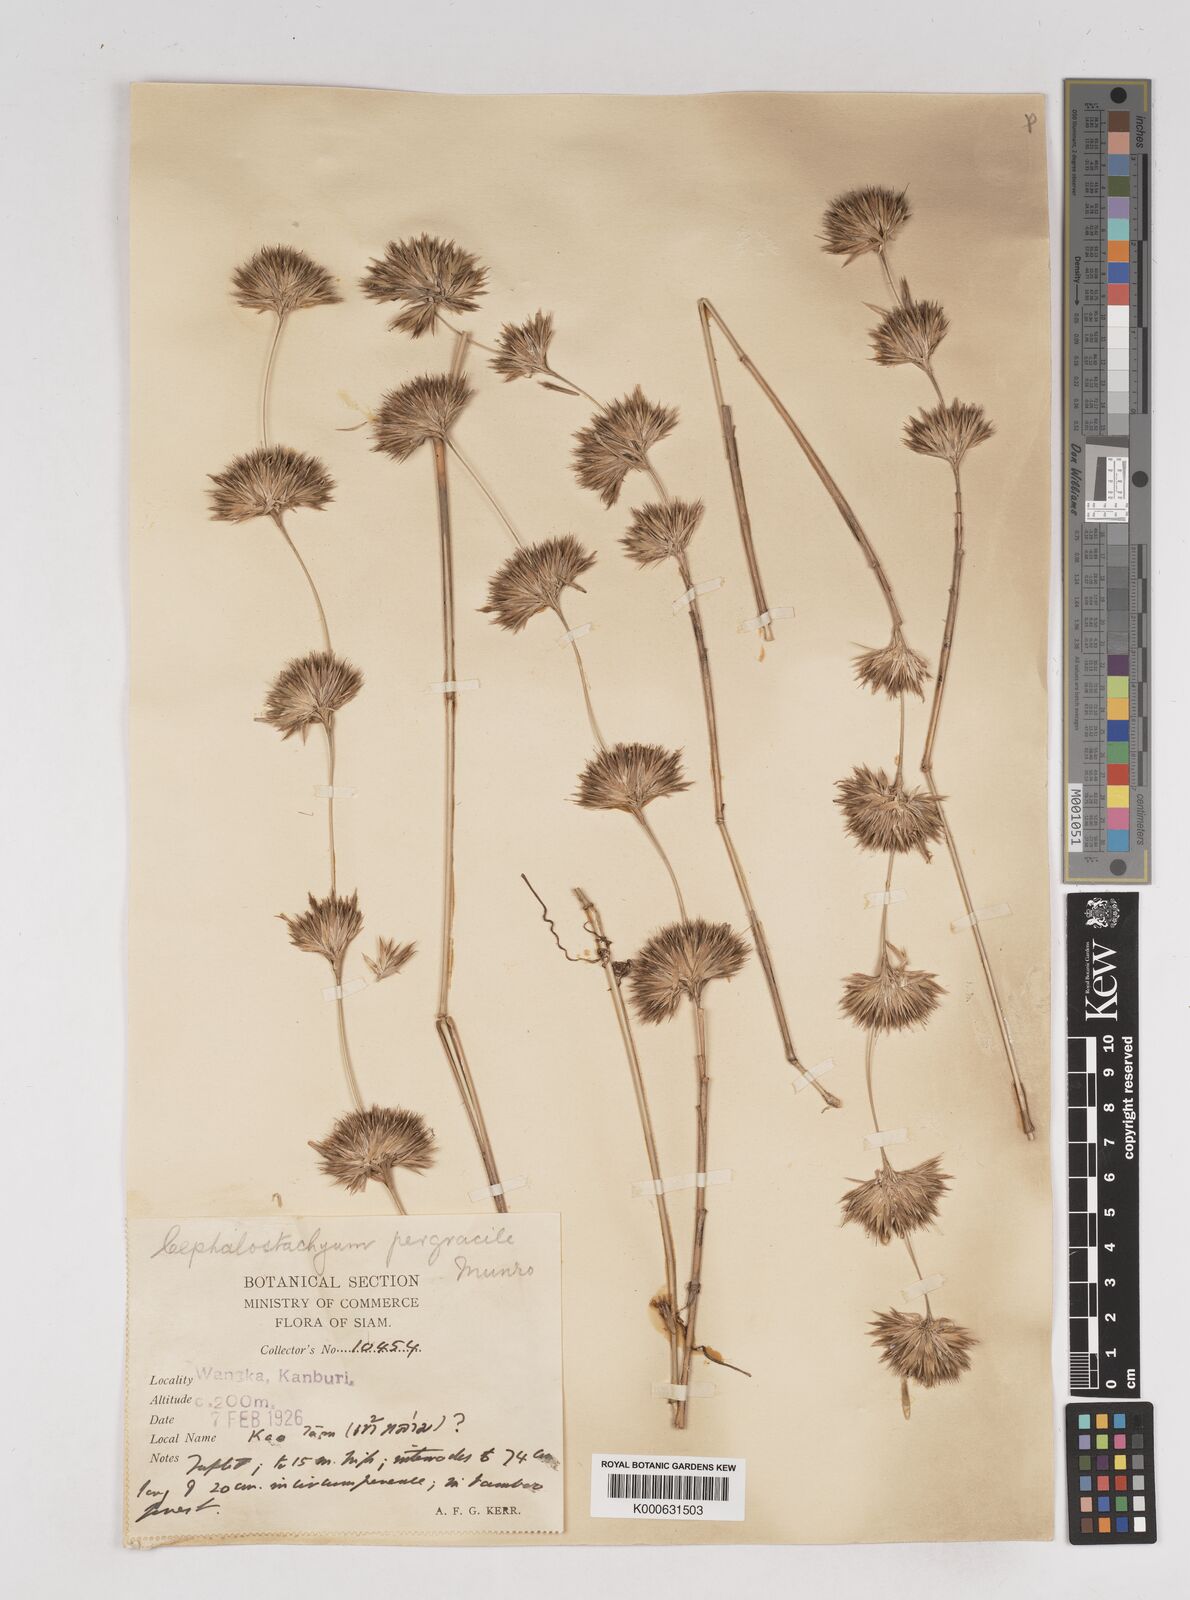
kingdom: Plantae
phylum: Tracheophyta
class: Liliopsida
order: Poales
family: Poaceae
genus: Schizostachyum
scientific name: Schizostachyum pergracile
